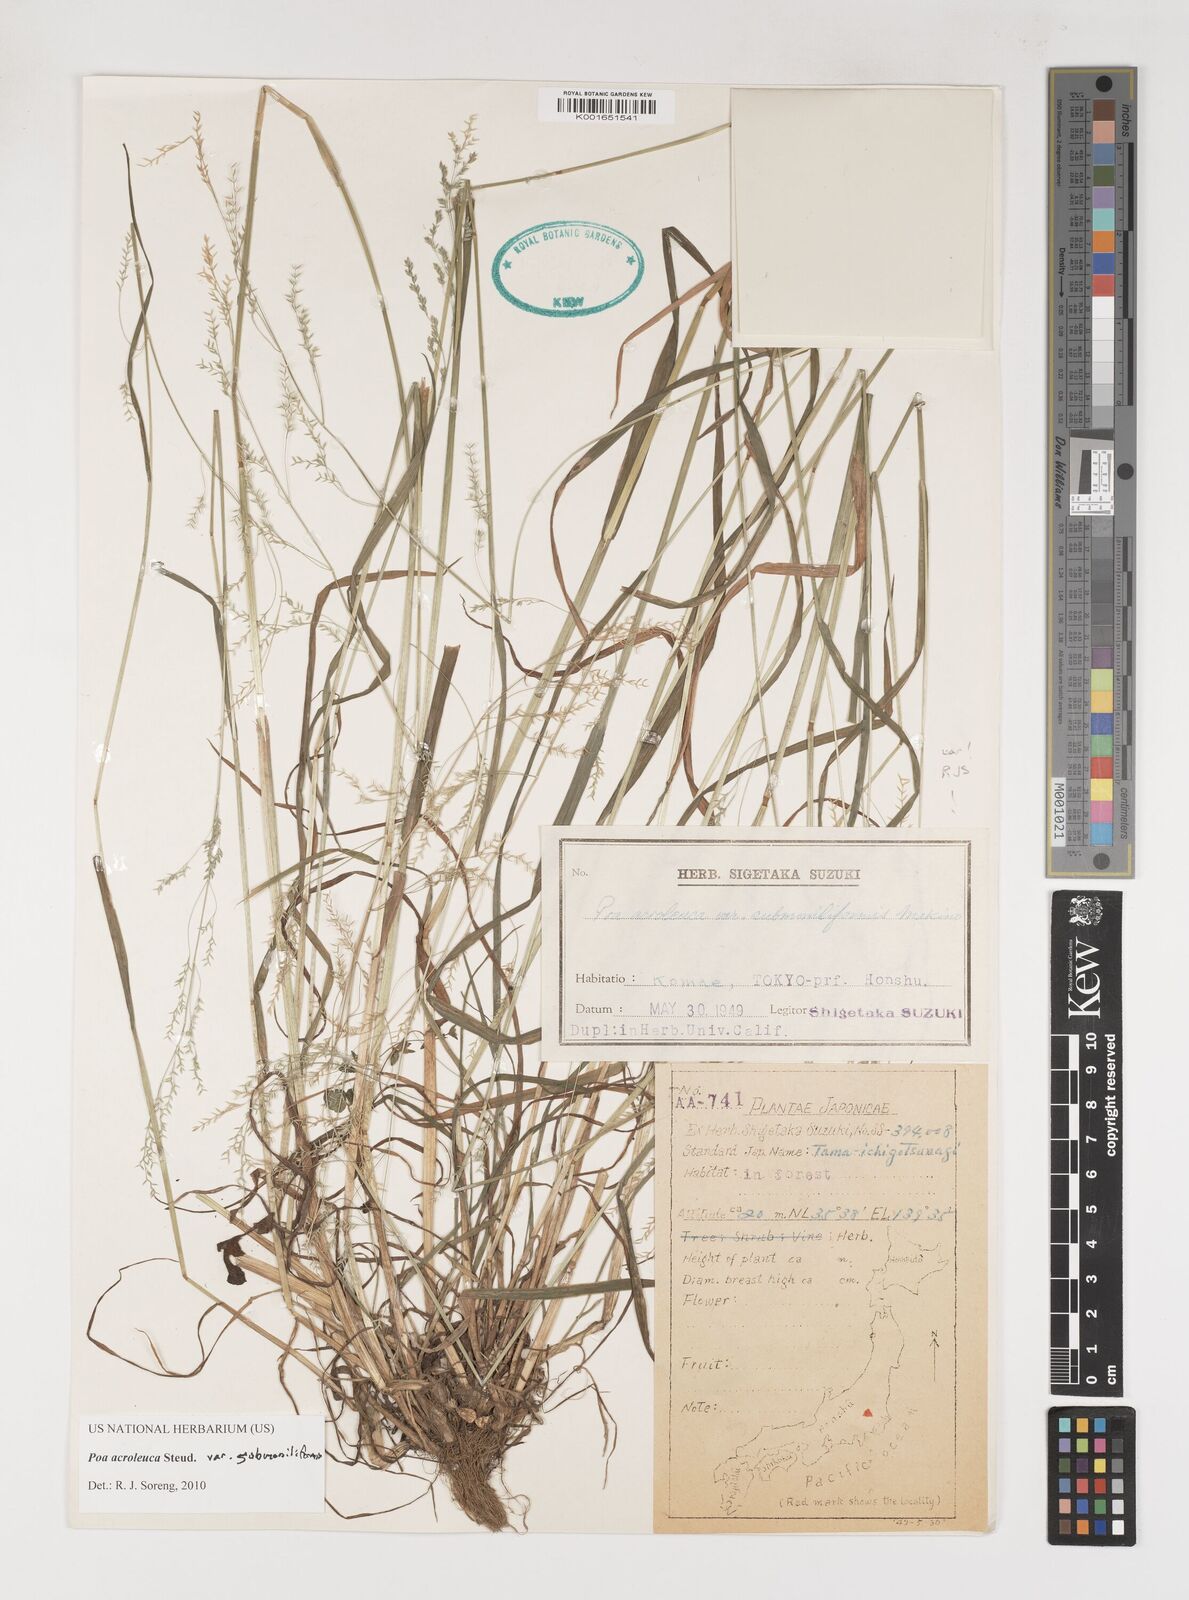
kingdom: Plantae
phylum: Tracheophyta
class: Liliopsida
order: Poales
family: Poaceae
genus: Poa
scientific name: Poa acroleuca
